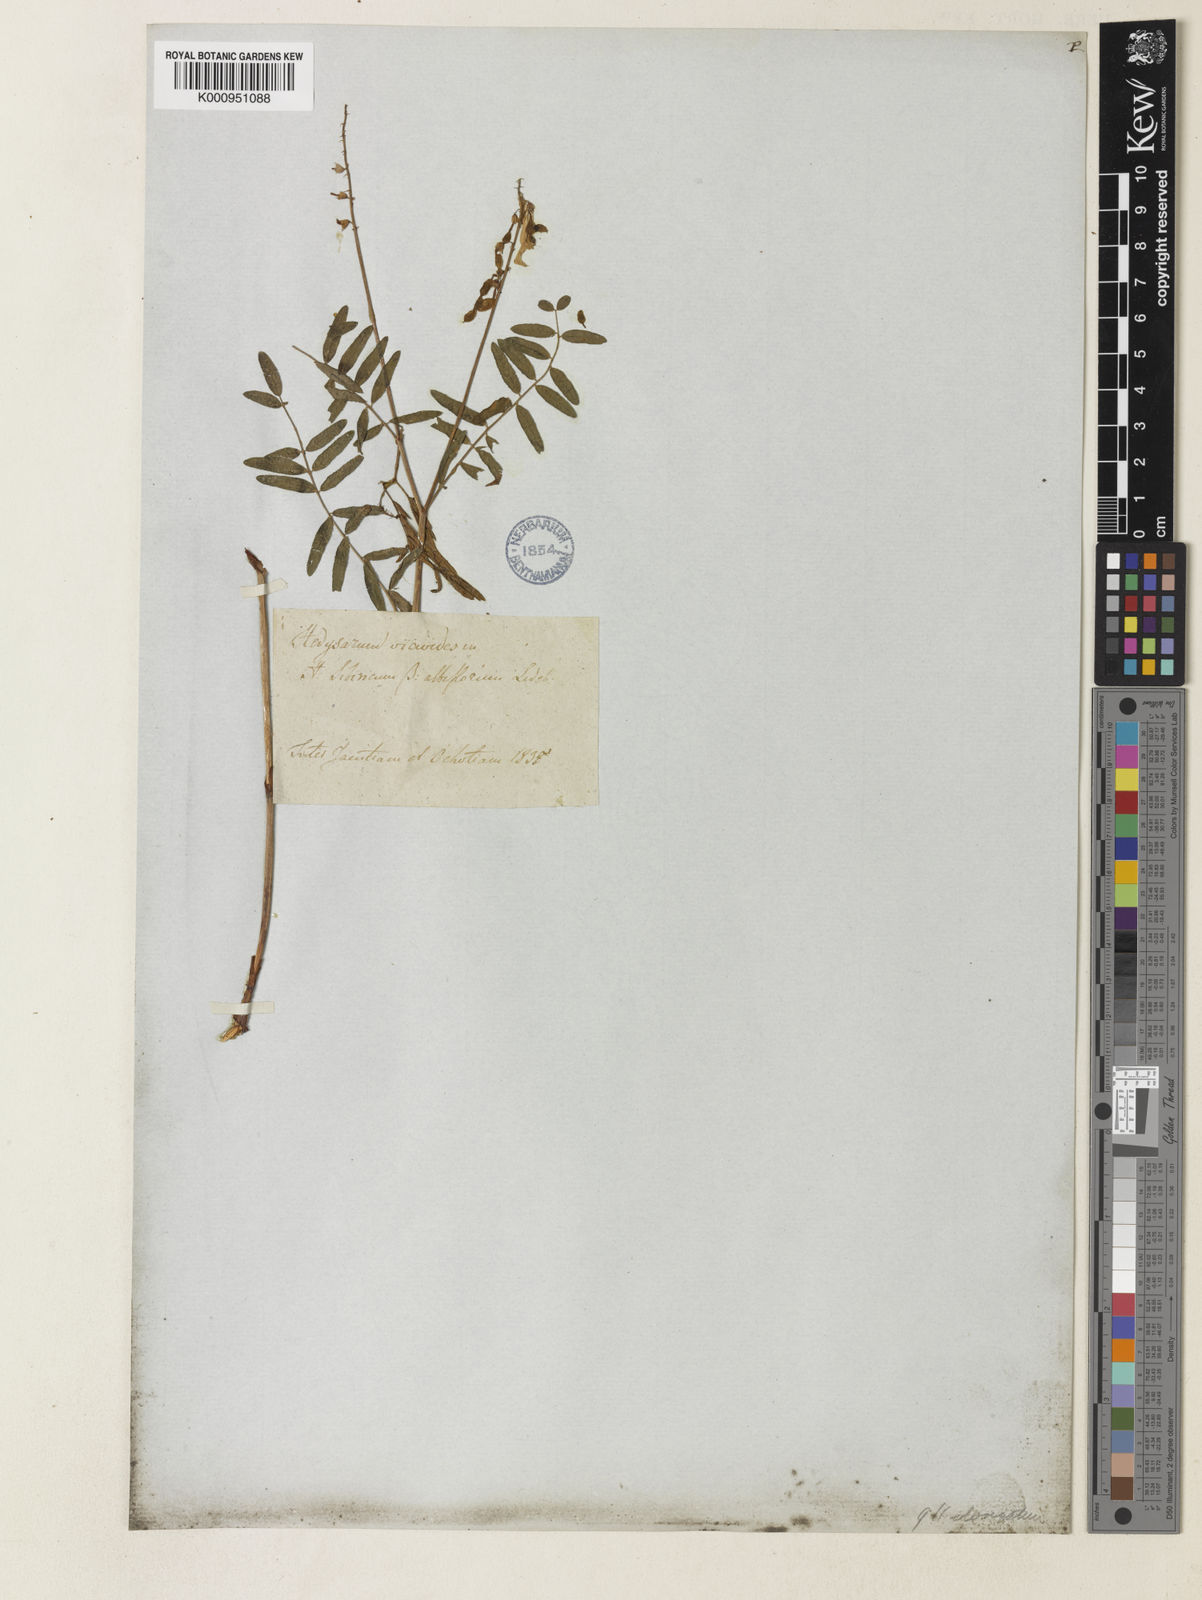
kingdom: Plantae
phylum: Tracheophyta
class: Magnoliopsida
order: Fabales
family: Fabaceae
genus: Hedysarum
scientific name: Hedysarum
